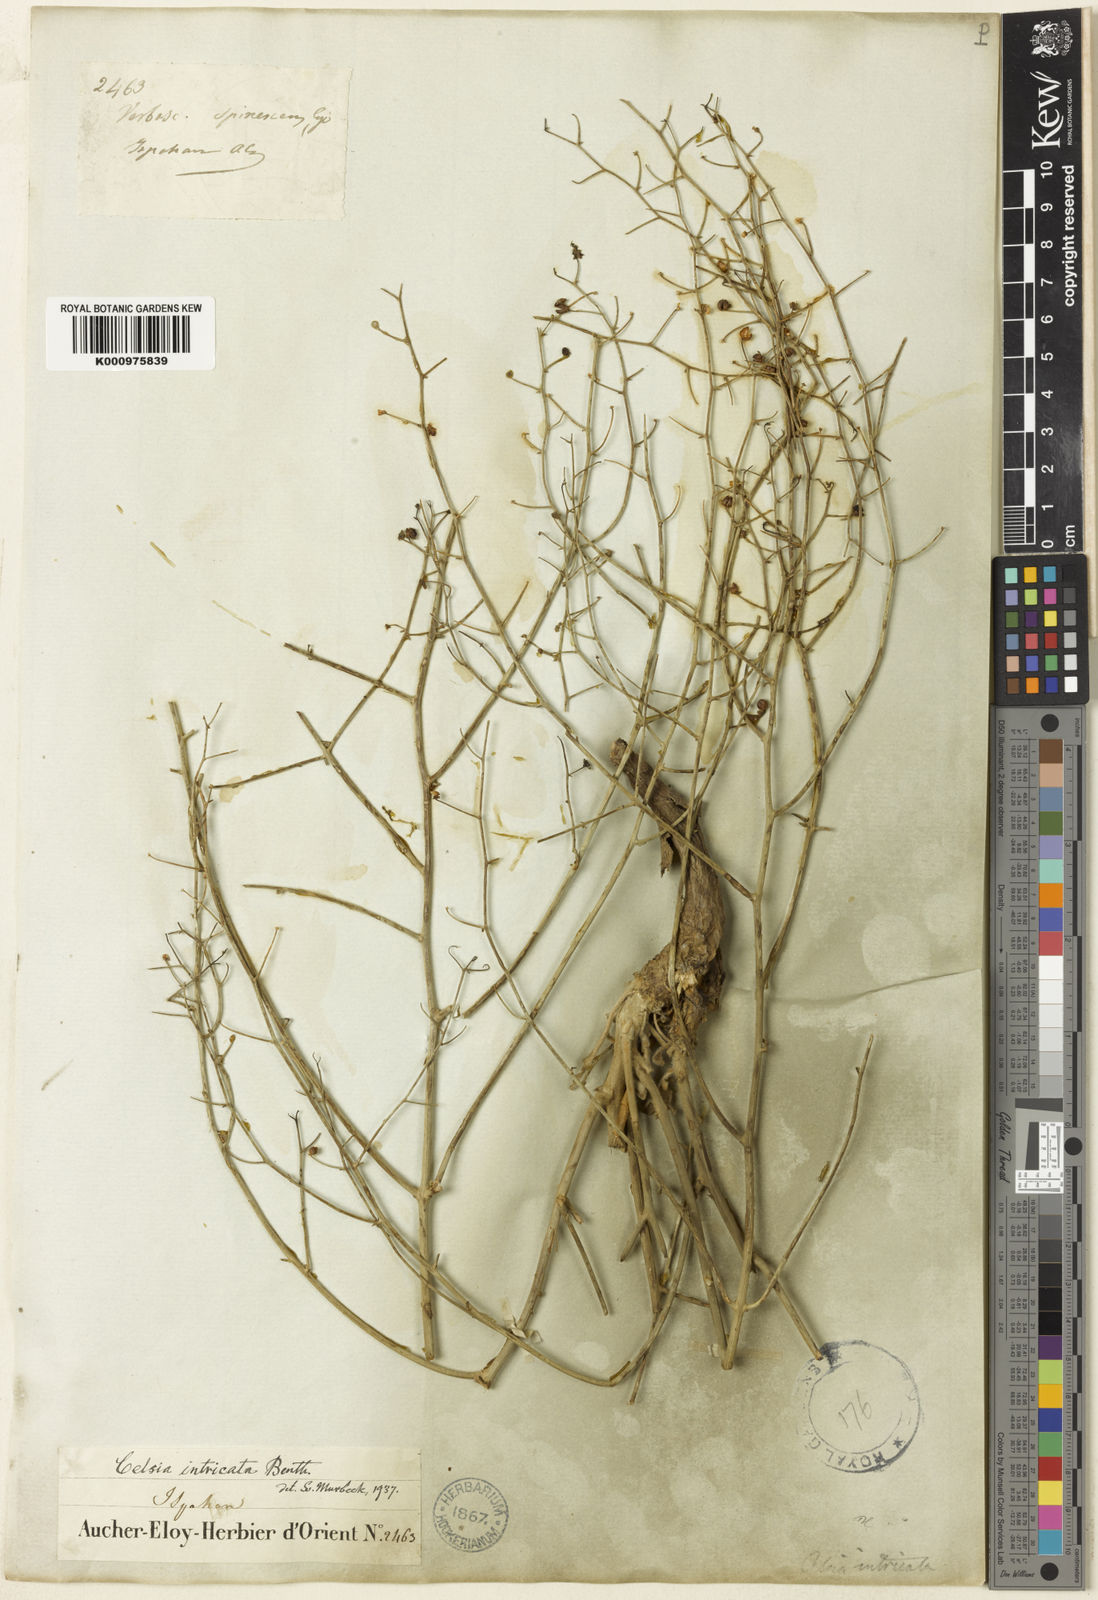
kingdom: Plantae
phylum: Tracheophyta
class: Magnoliopsida
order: Lamiales
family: Scrophulariaceae
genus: Verbascum
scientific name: Verbascum intricatum
